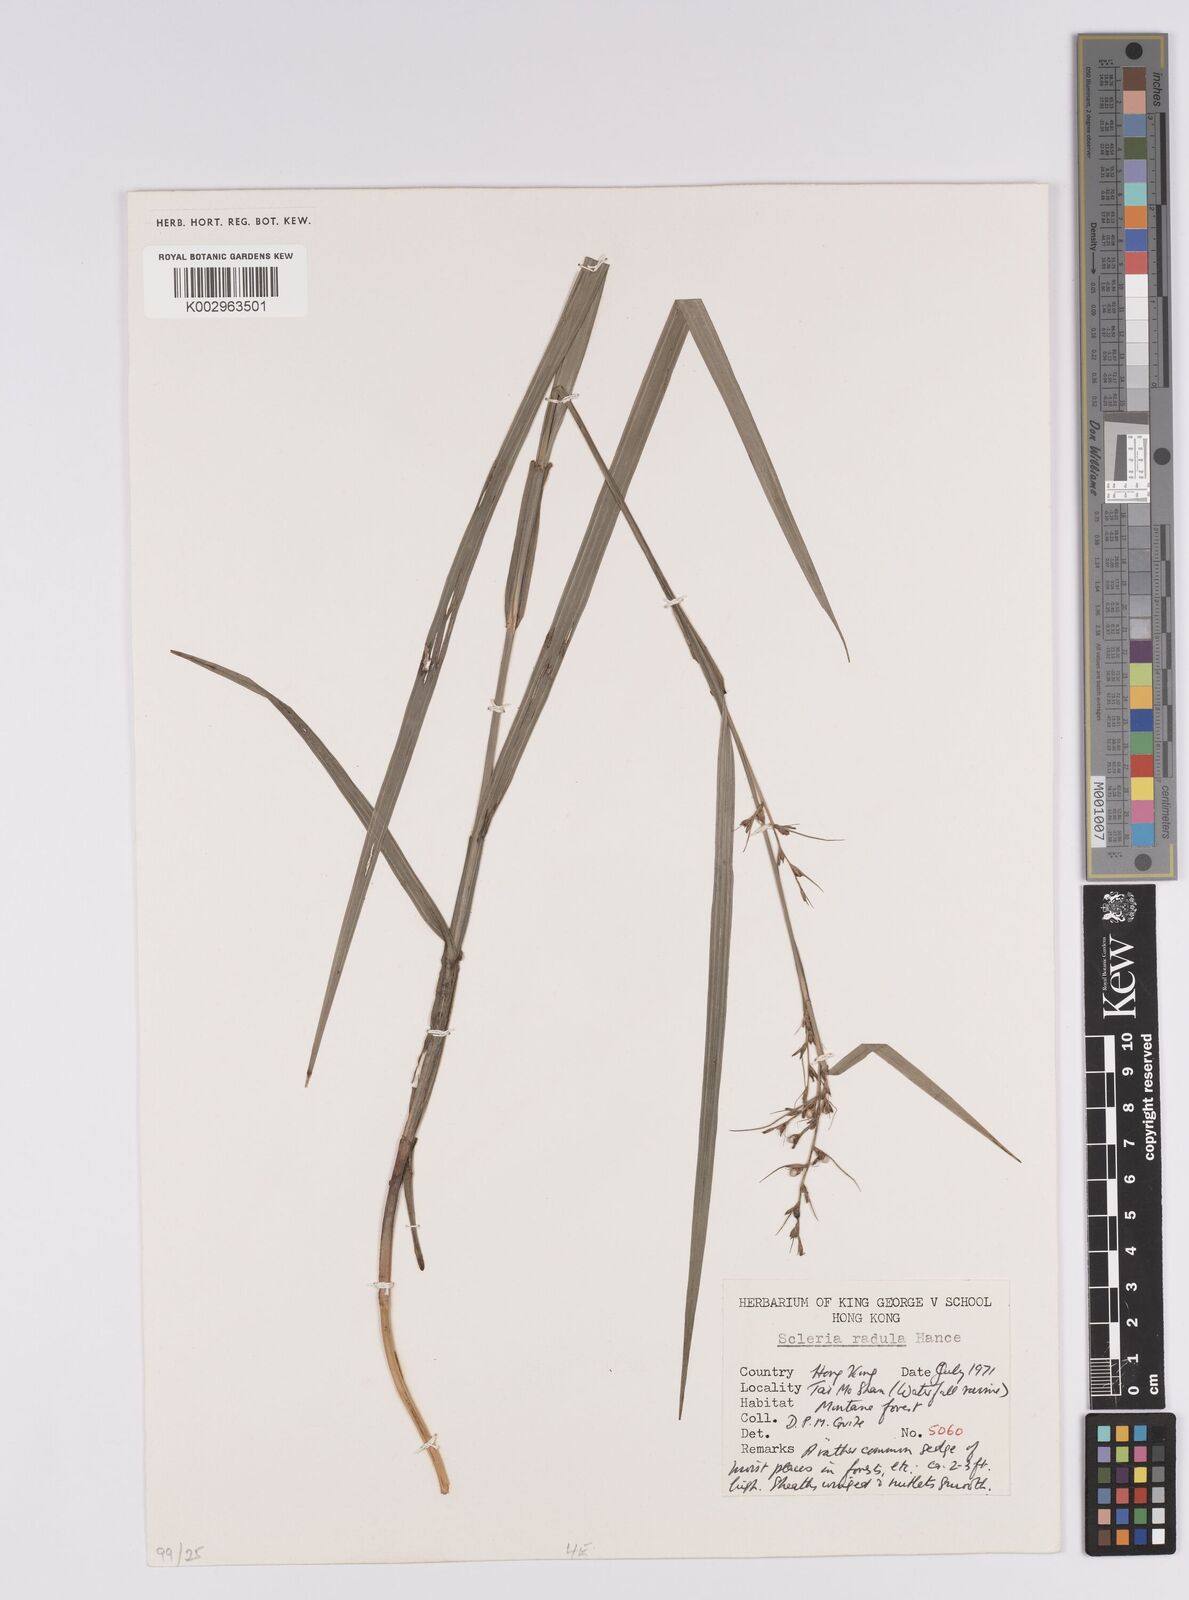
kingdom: Plantae
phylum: Tracheophyta
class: Liliopsida
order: Poales
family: Cyperaceae
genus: Scleria
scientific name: Scleria radula
